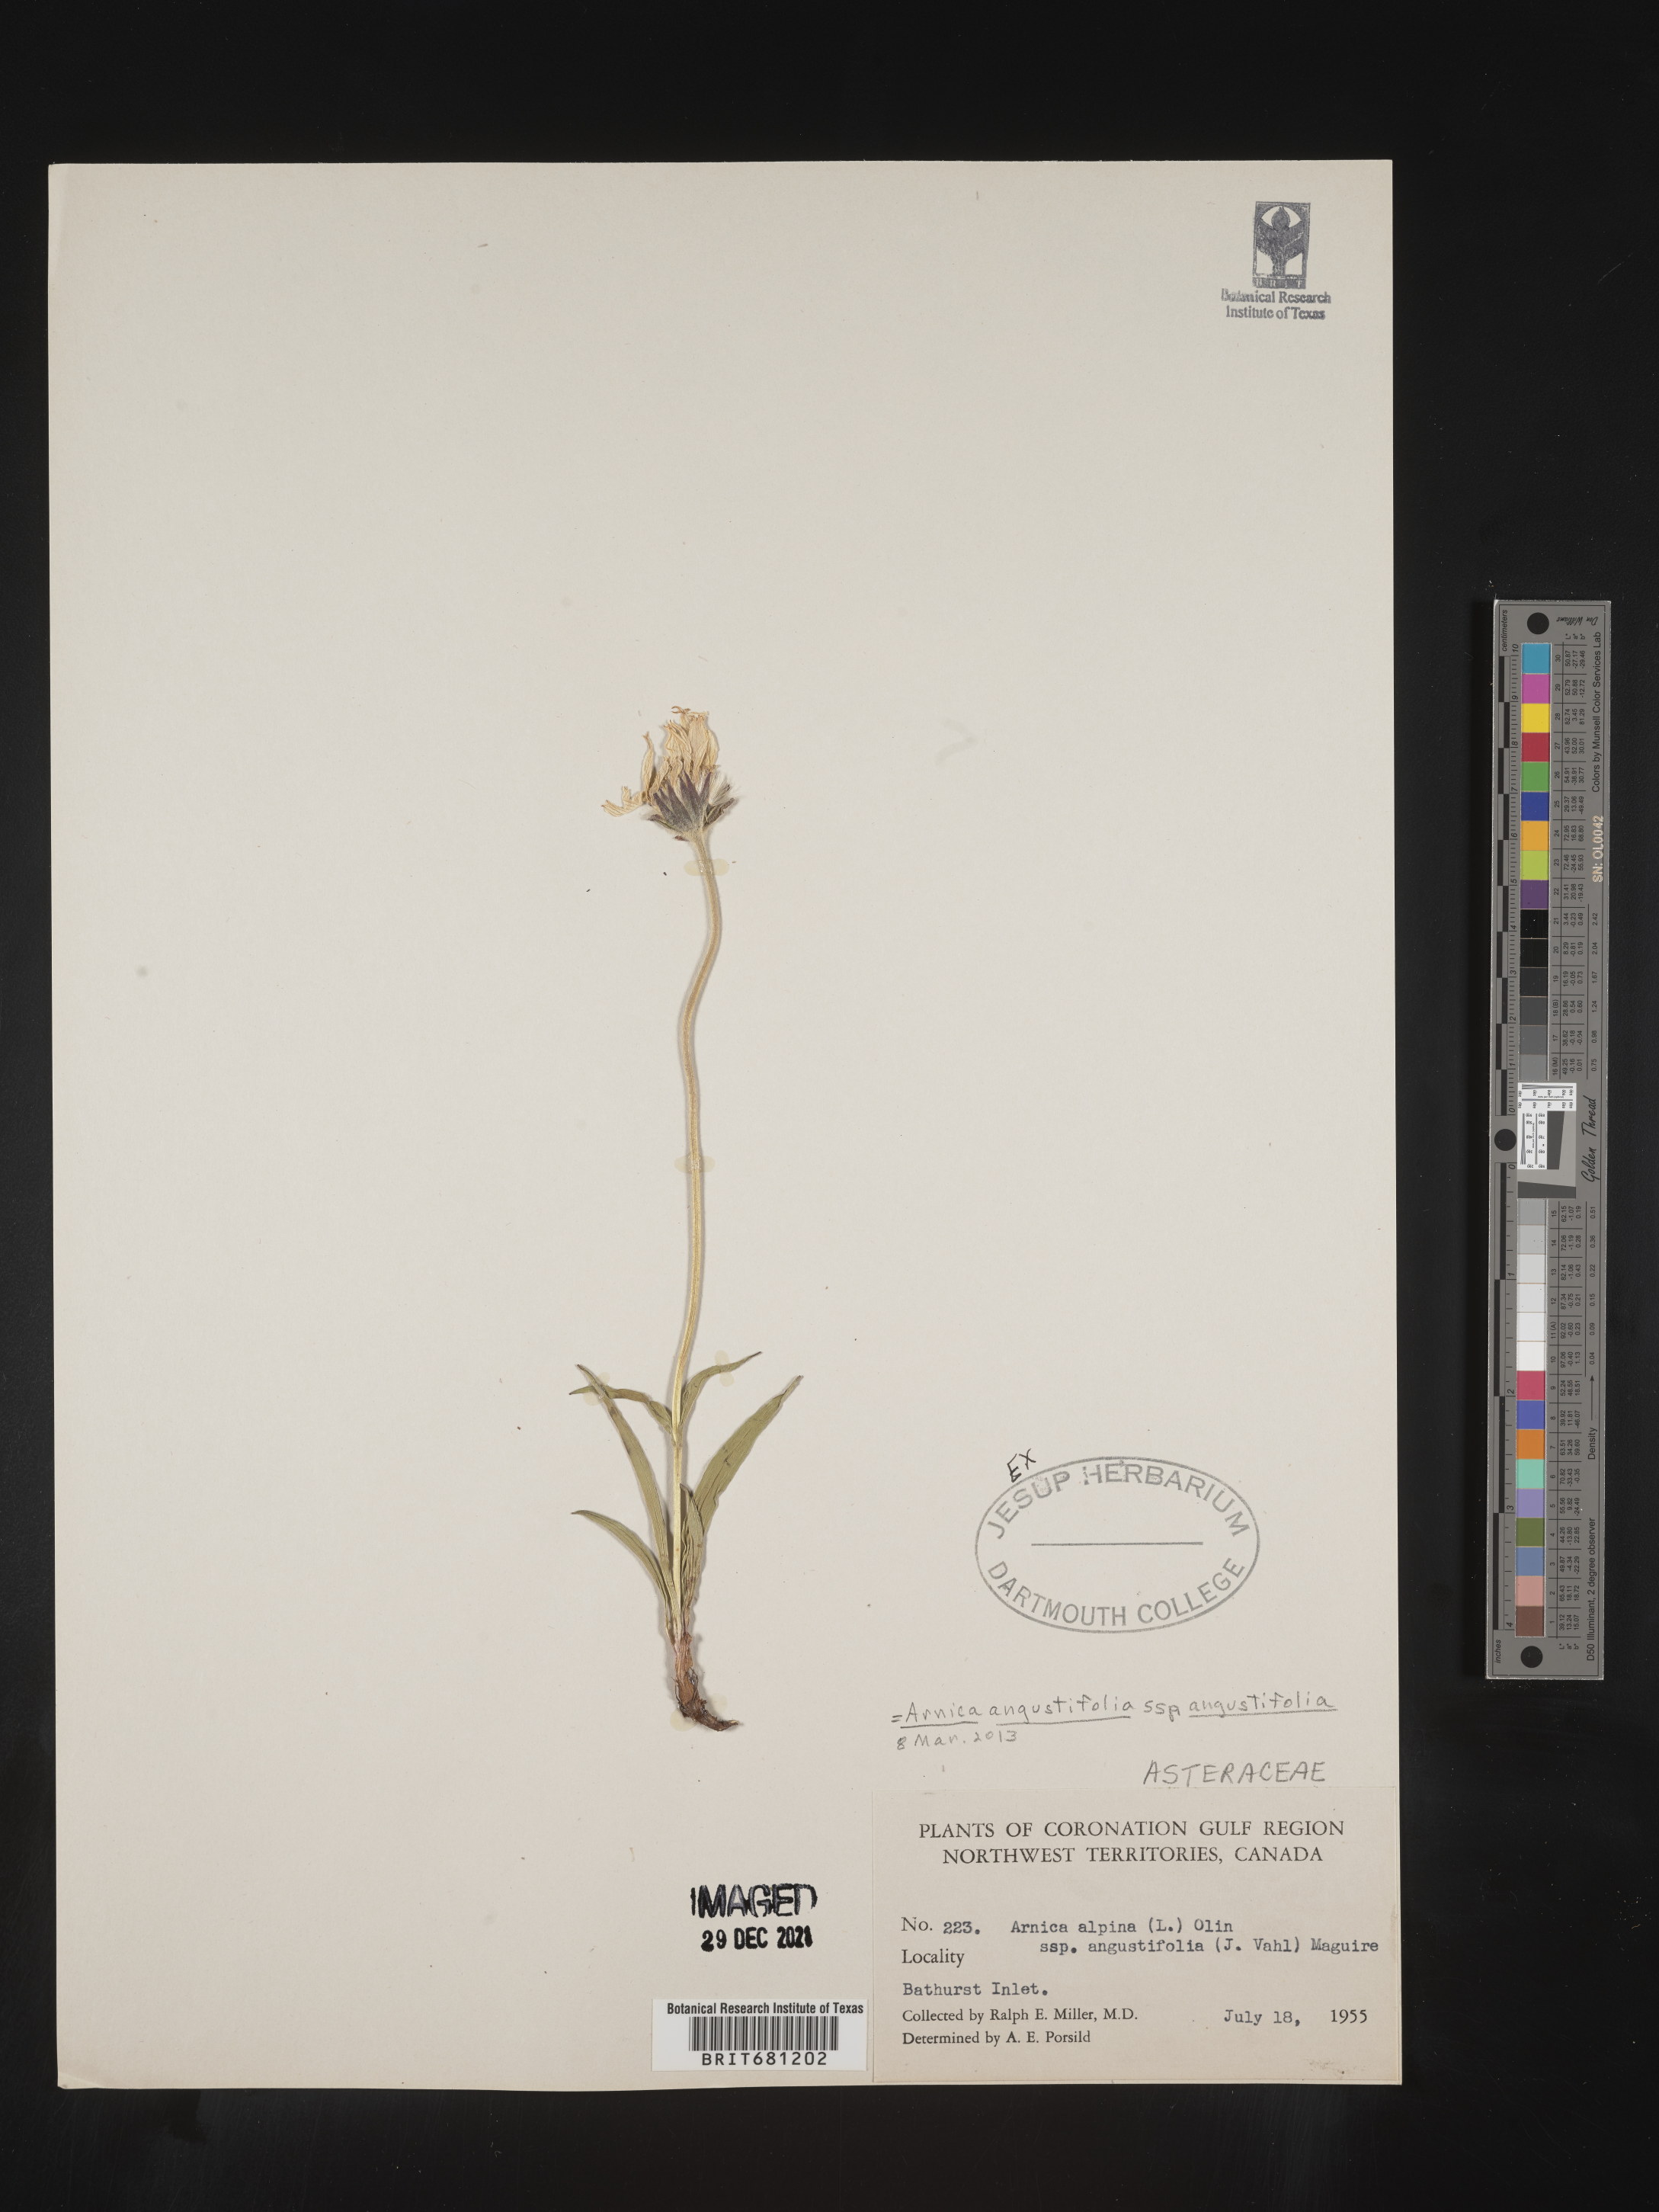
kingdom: Plantae
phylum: Tracheophyta
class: Magnoliopsida
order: Asterales
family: Asteraceae
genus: Arnica
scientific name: Arnica angustifolia
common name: Arctic arnica
